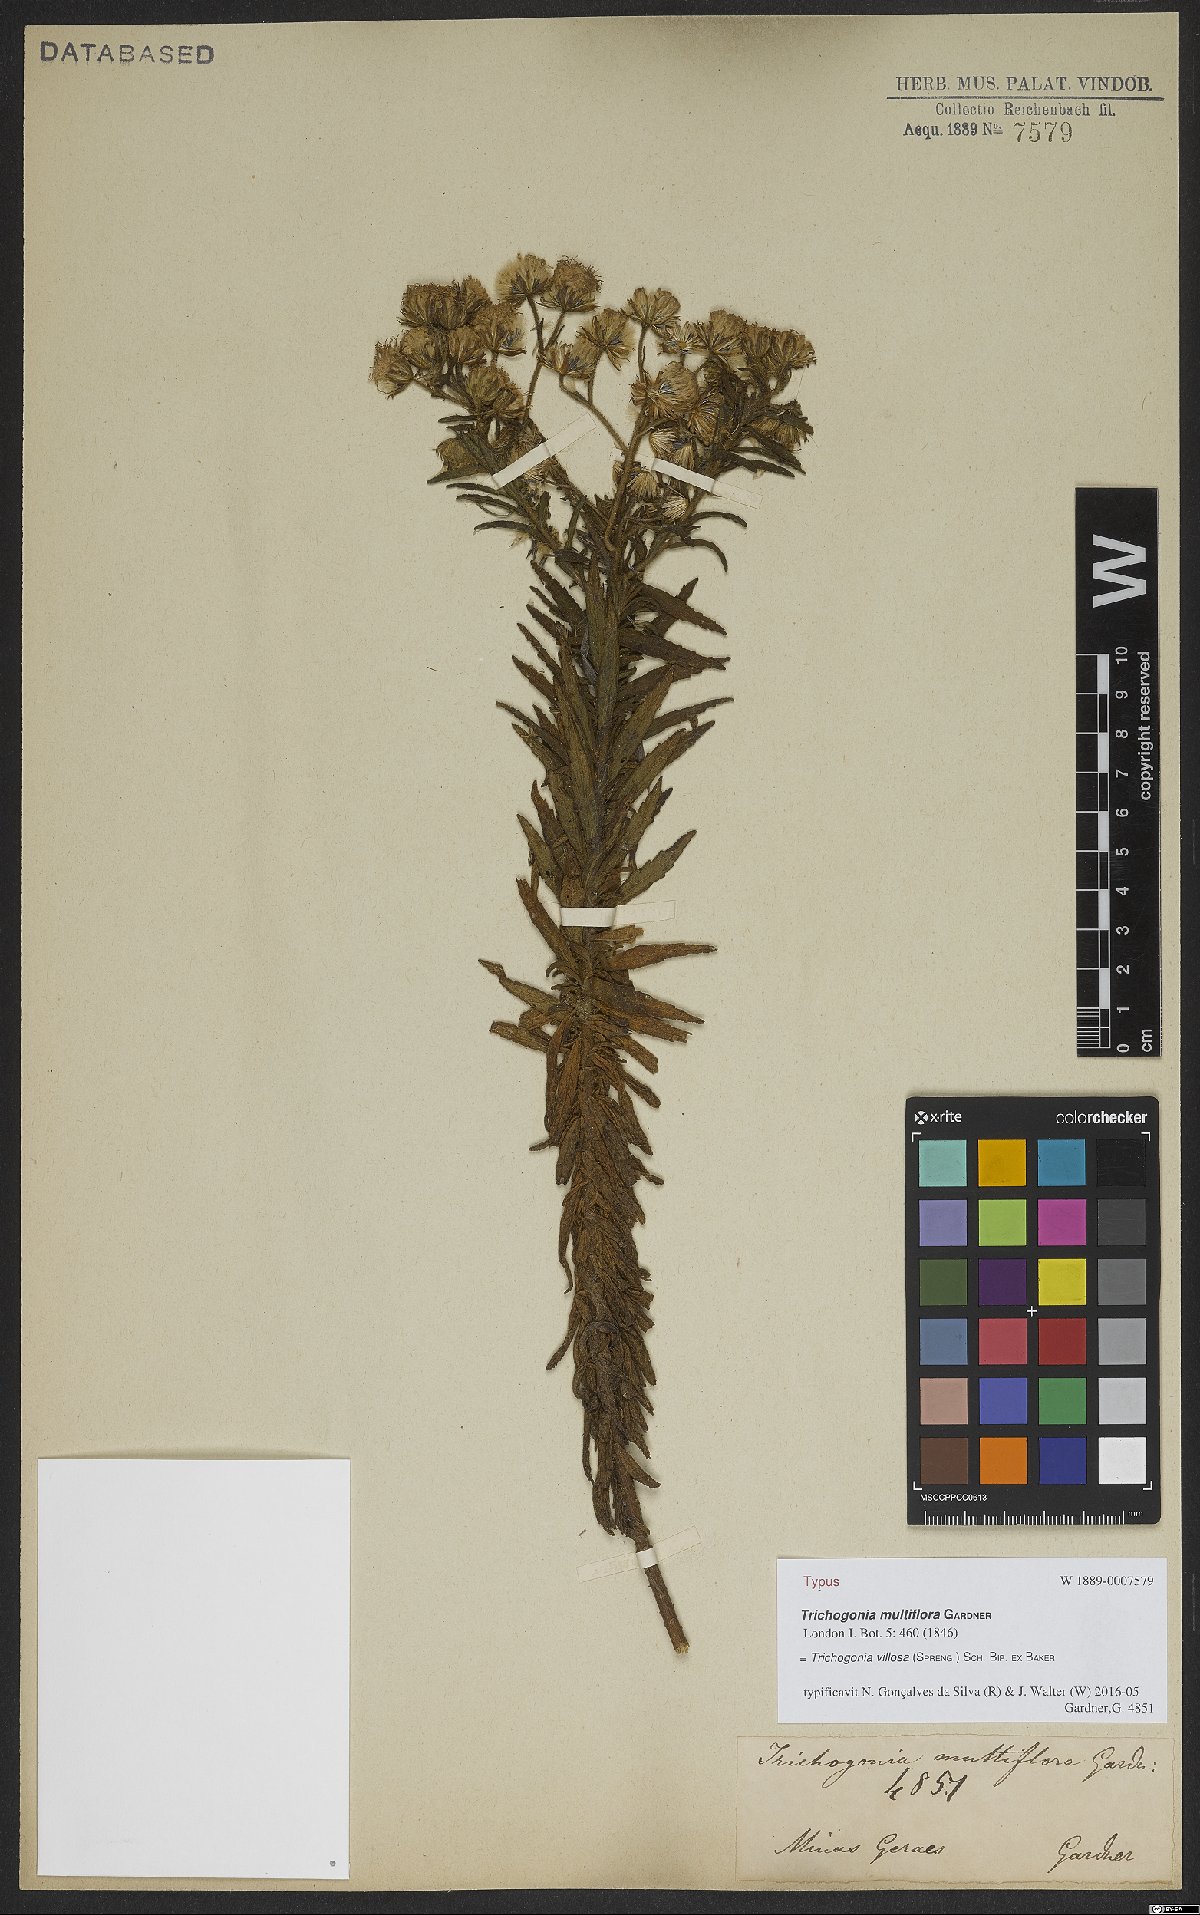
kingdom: Plantae
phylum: Tracheophyta
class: Magnoliopsida
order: Asterales
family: Asteraceae
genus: Trichogonia
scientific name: Trichogonia villosa
